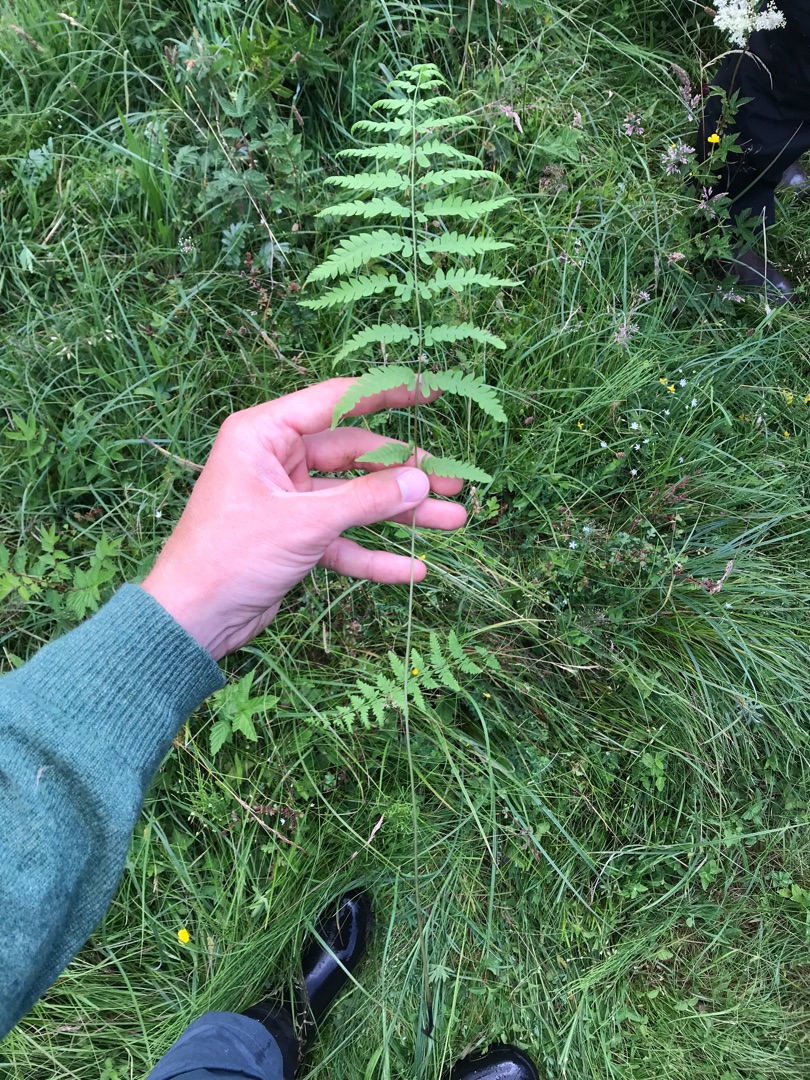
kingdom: Plantae
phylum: Tracheophyta
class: Polypodiopsida
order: Polypodiales
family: Thelypteridaceae
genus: Thelypteris
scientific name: Thelypteris palustris
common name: Kærmangeløv
